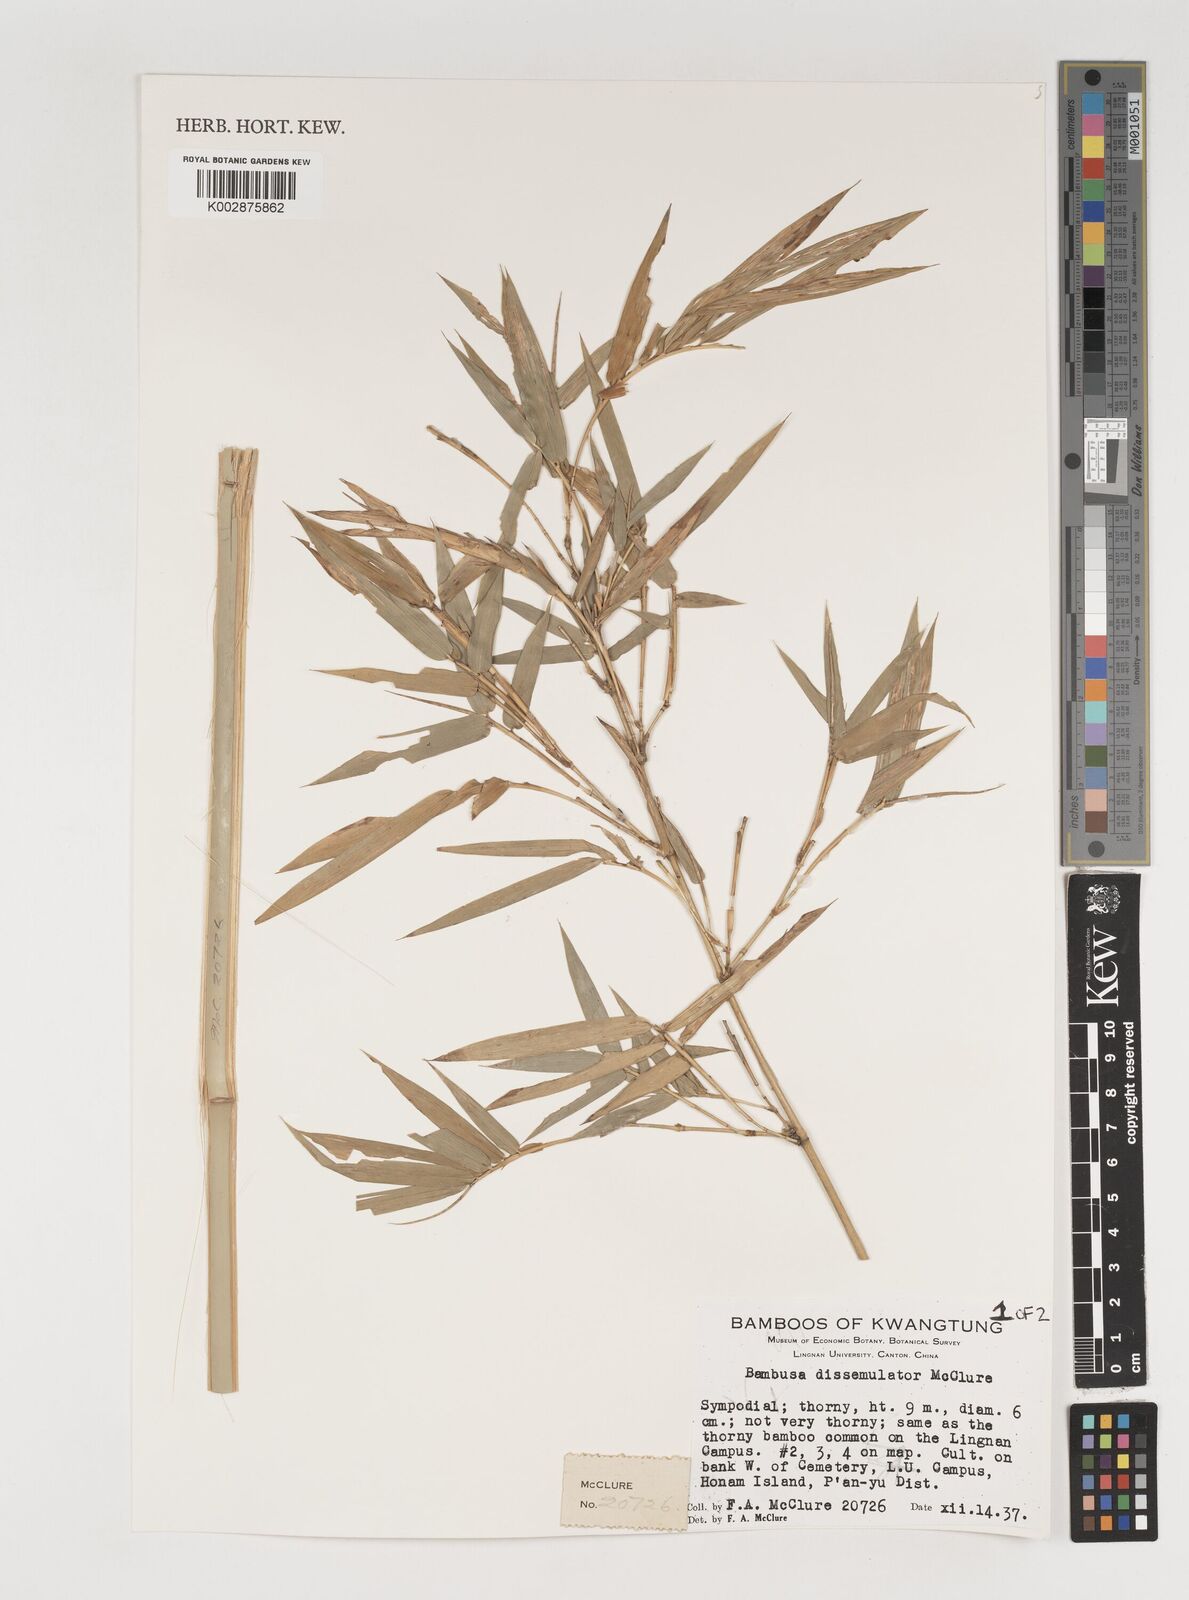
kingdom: Plantae
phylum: Tracheophyta
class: Liliopsida
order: Poales
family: Poaceae
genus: Bambusa
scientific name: Bambusa dissimulator
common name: Muddy bamboo
